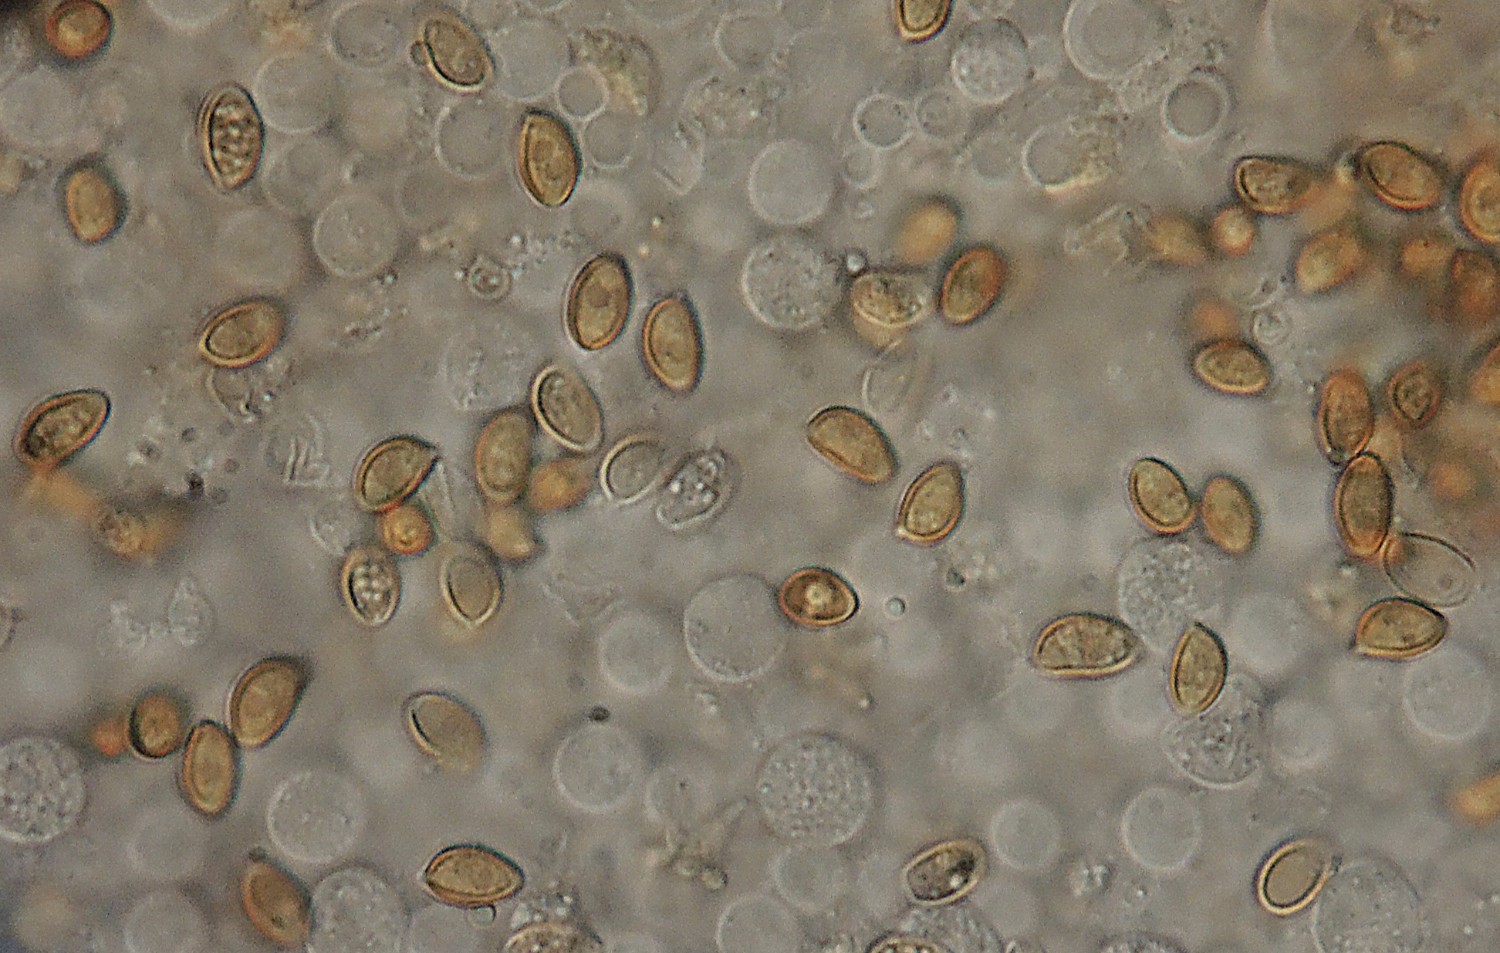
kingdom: Fungi
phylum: Basidiomycota
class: Agaricomycetes
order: Agaricales
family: Bolbitiaceae
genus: Conocybe
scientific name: Conocybe microspora
